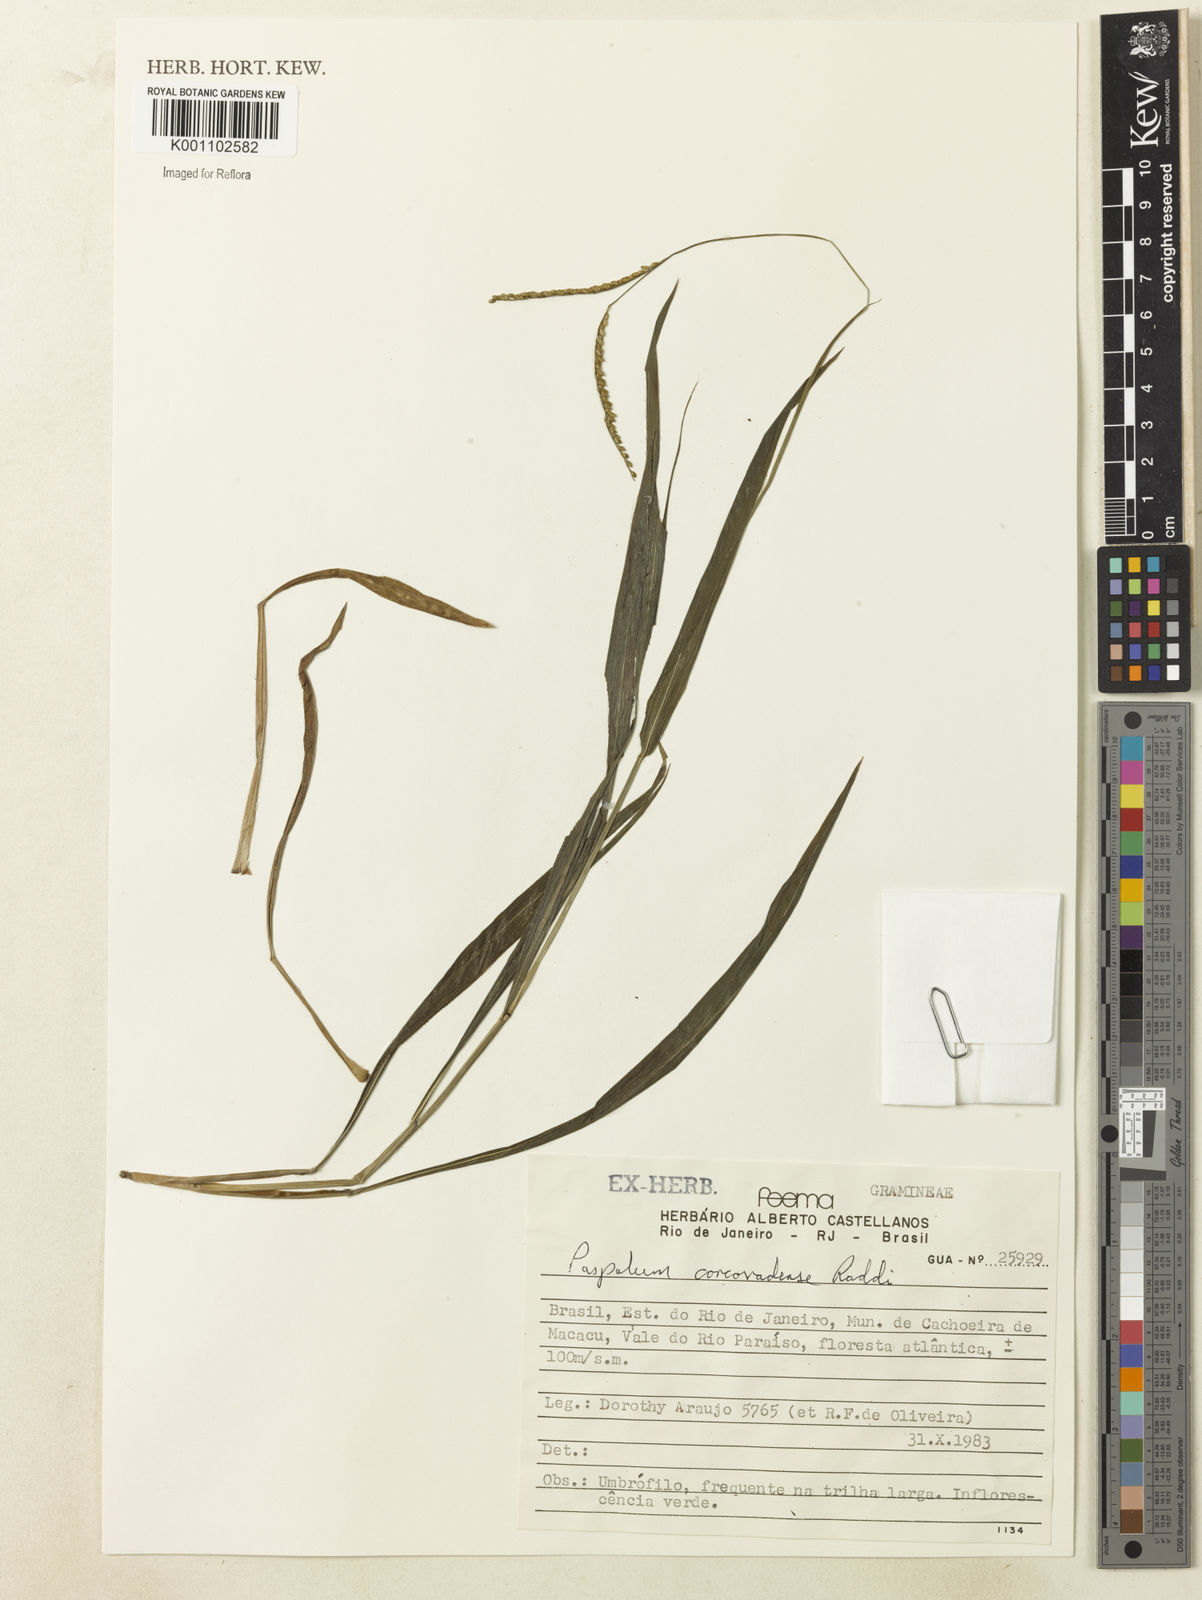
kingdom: Plantae
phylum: Tracheophyta
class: Liliopsida
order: Poales
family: Poaceae
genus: Paspalum
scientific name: Paspalum corcovadense
